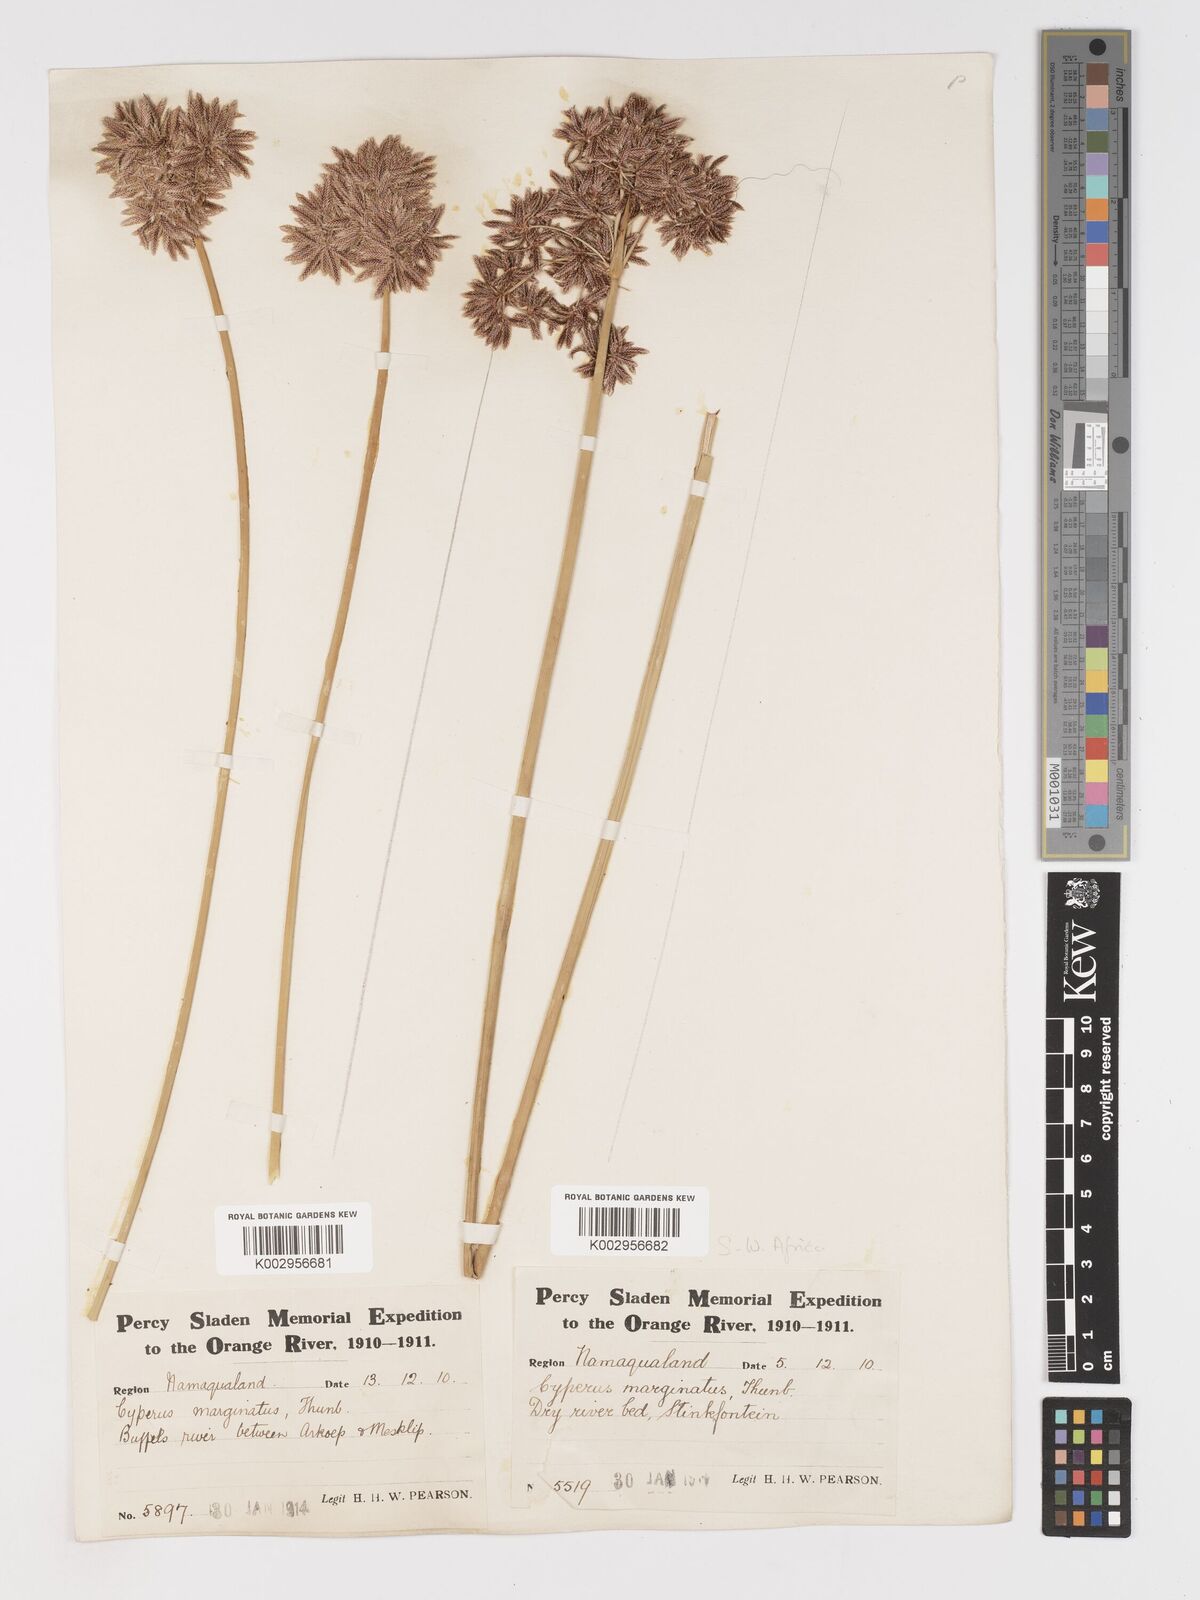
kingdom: Plantae
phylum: Tracheophyta
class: Liliopsida
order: Poales
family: Cyperaceae
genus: Cyperus
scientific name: Cyperus marginatus
